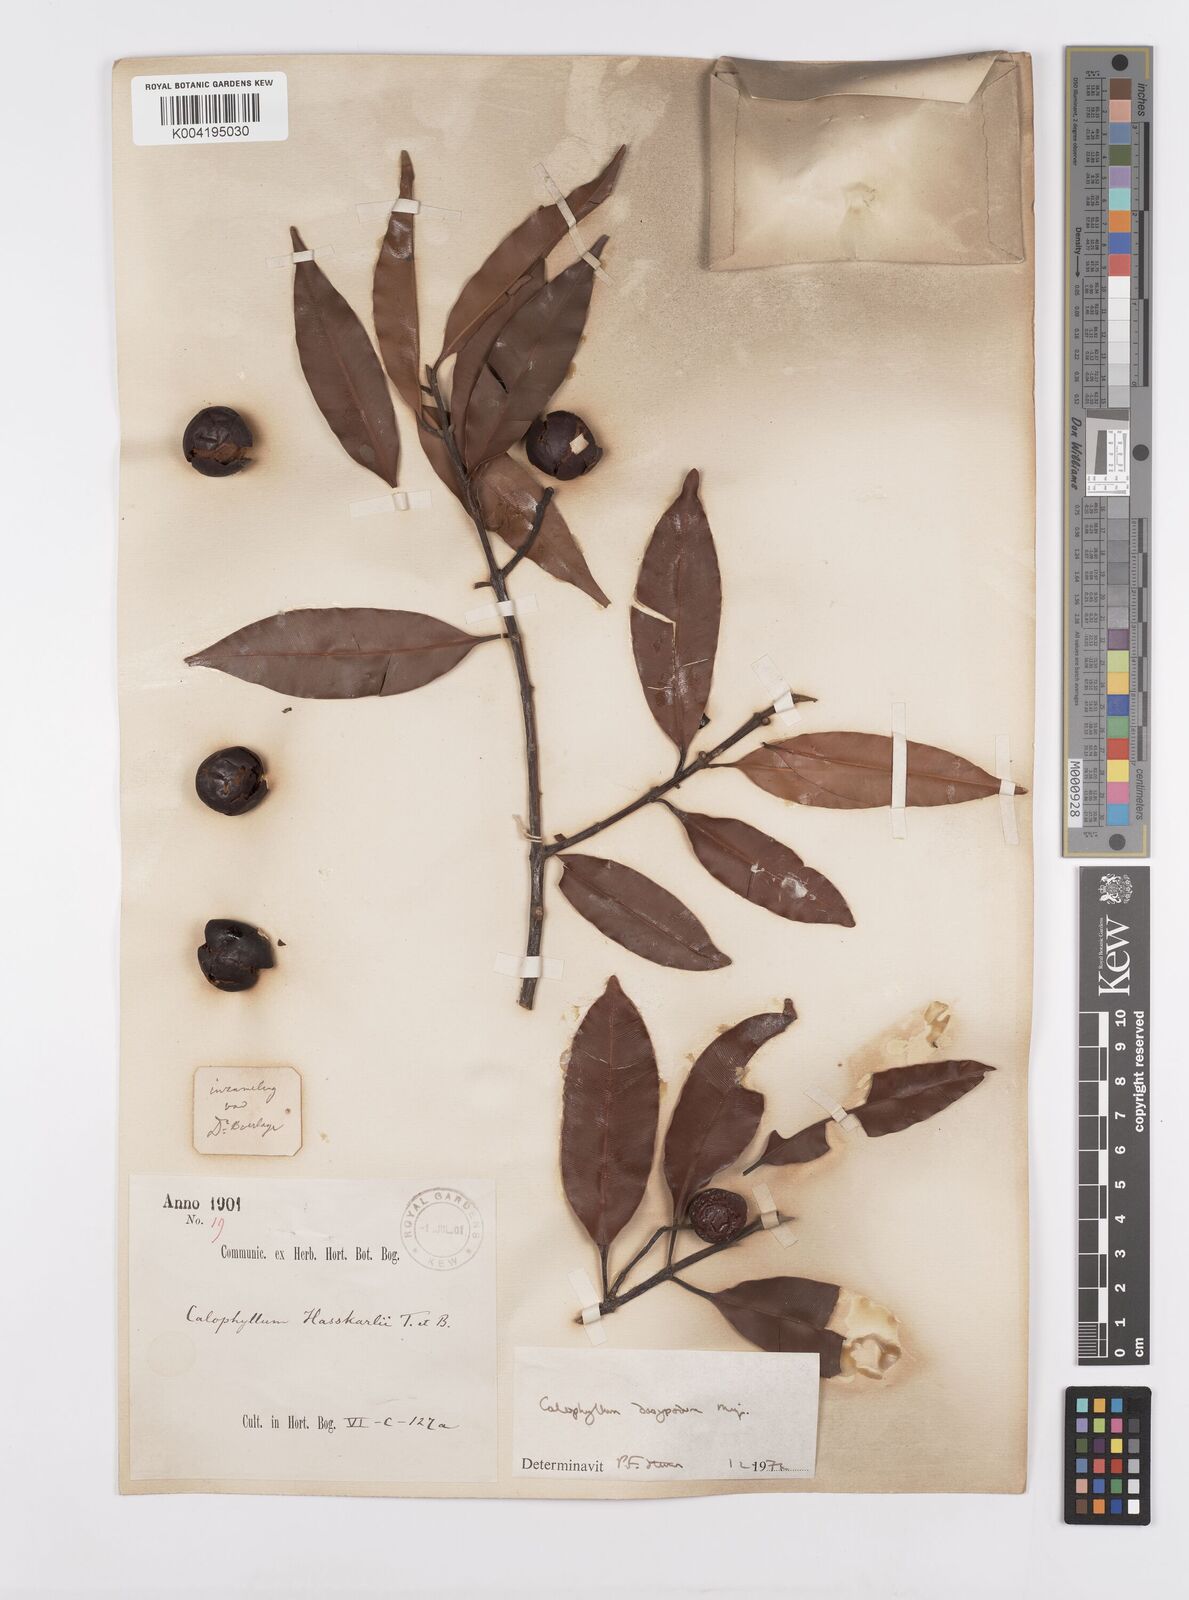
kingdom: Plantae
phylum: Tracheophyta
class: Magnoliopsida
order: Malpighiales
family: Calophyllaceae
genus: Calophyllum
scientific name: Calophyllum dasypodium
